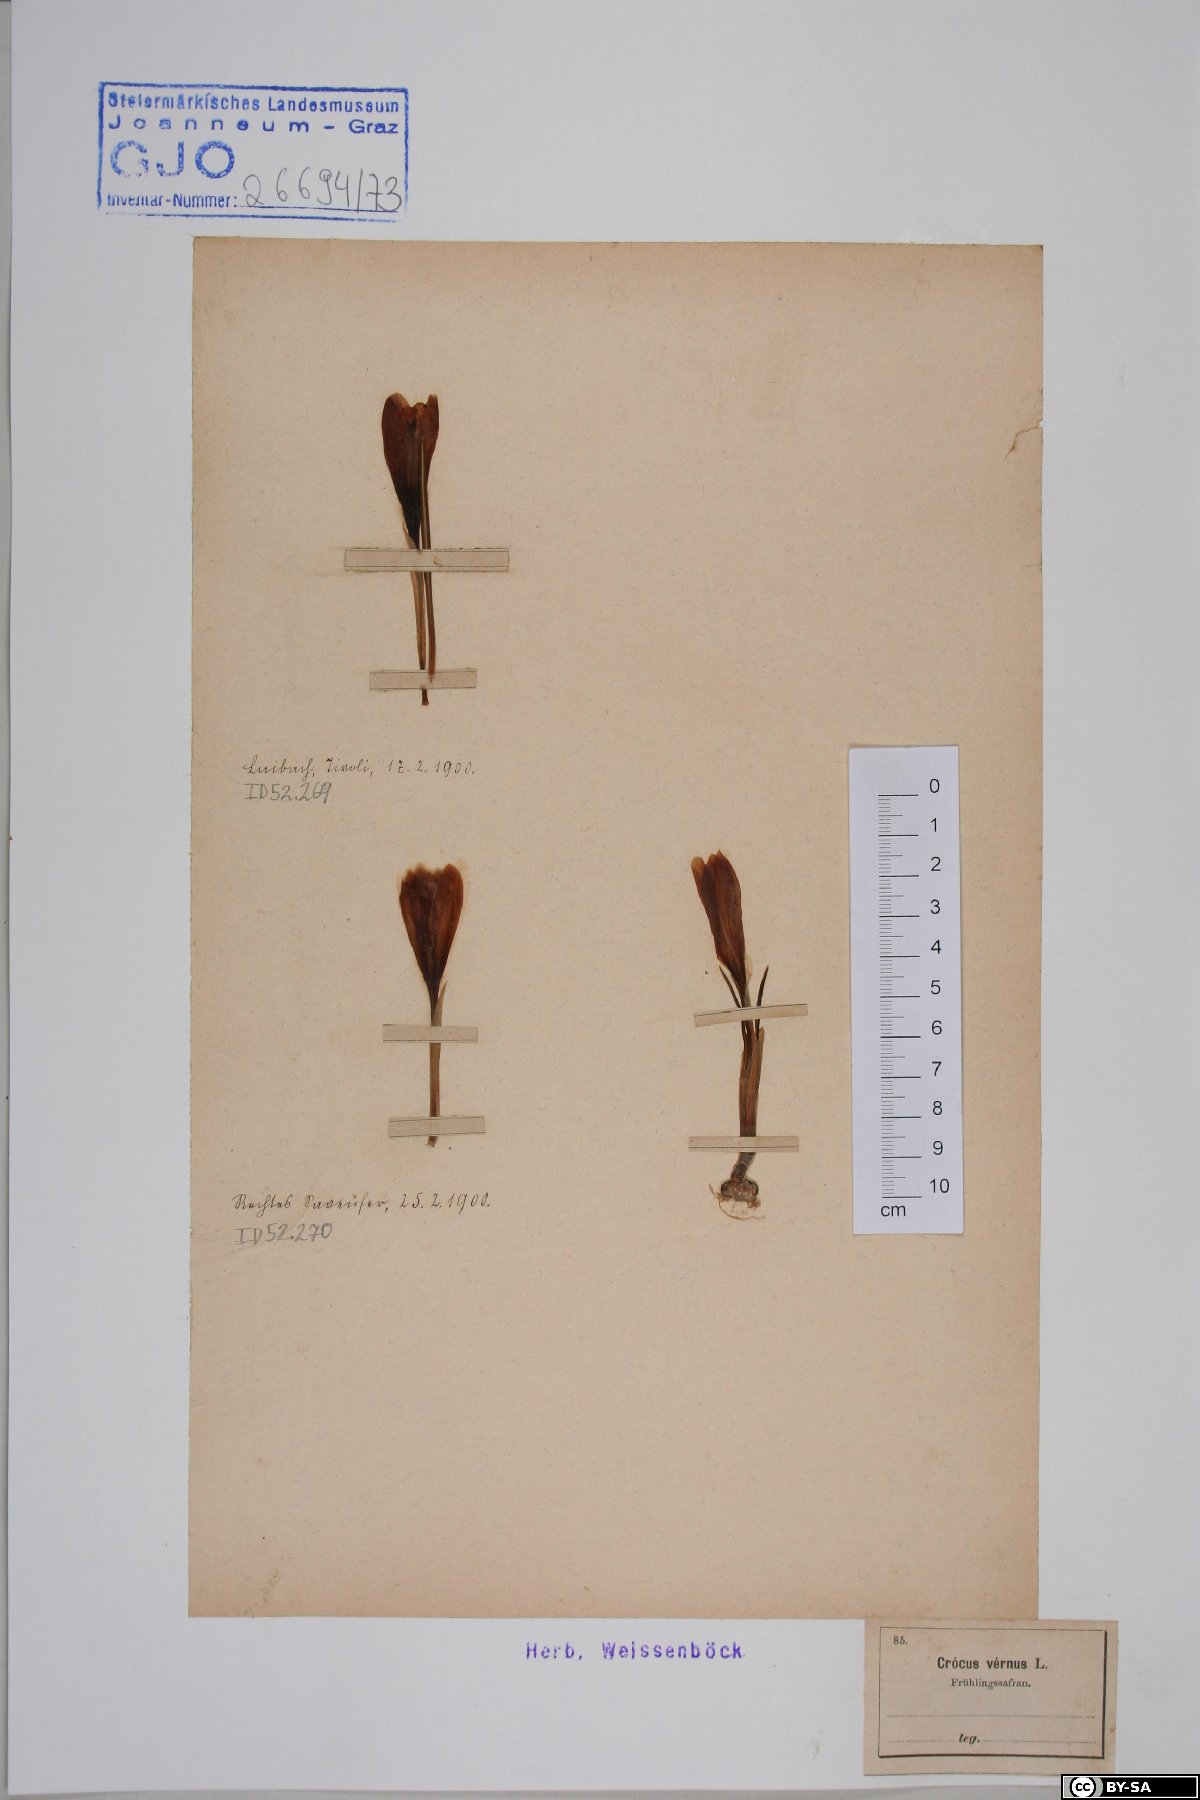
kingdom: Plantae
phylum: Tracheophyta
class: Liliopsida
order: Asparagales
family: Iridaceae
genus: Crocus
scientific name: Crocus vernus
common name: Spring crocus
